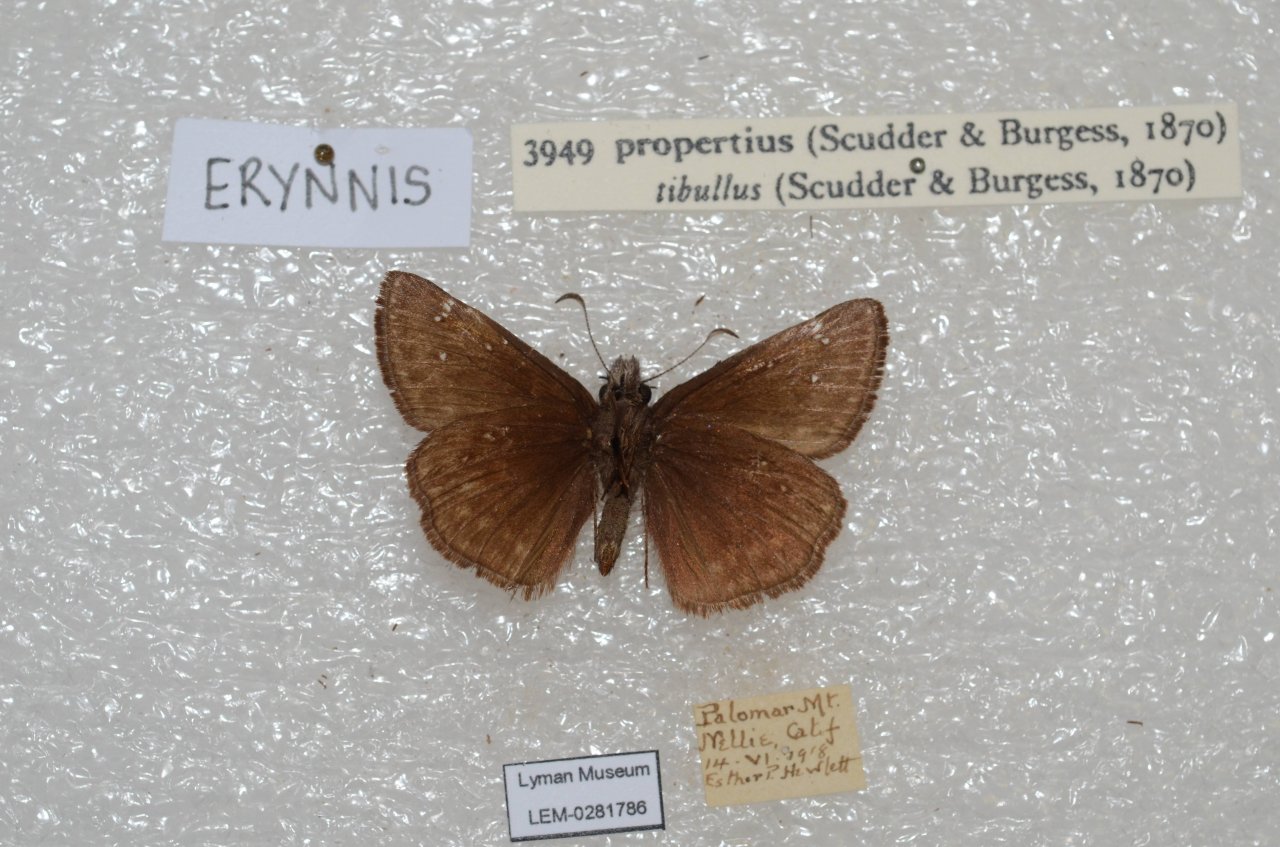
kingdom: Animalia
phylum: Arthropoda
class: Insecta
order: Lepidoptera
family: Hesperiidae
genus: Erynnis
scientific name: Erynnis propertius
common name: Propertius Duskywing
